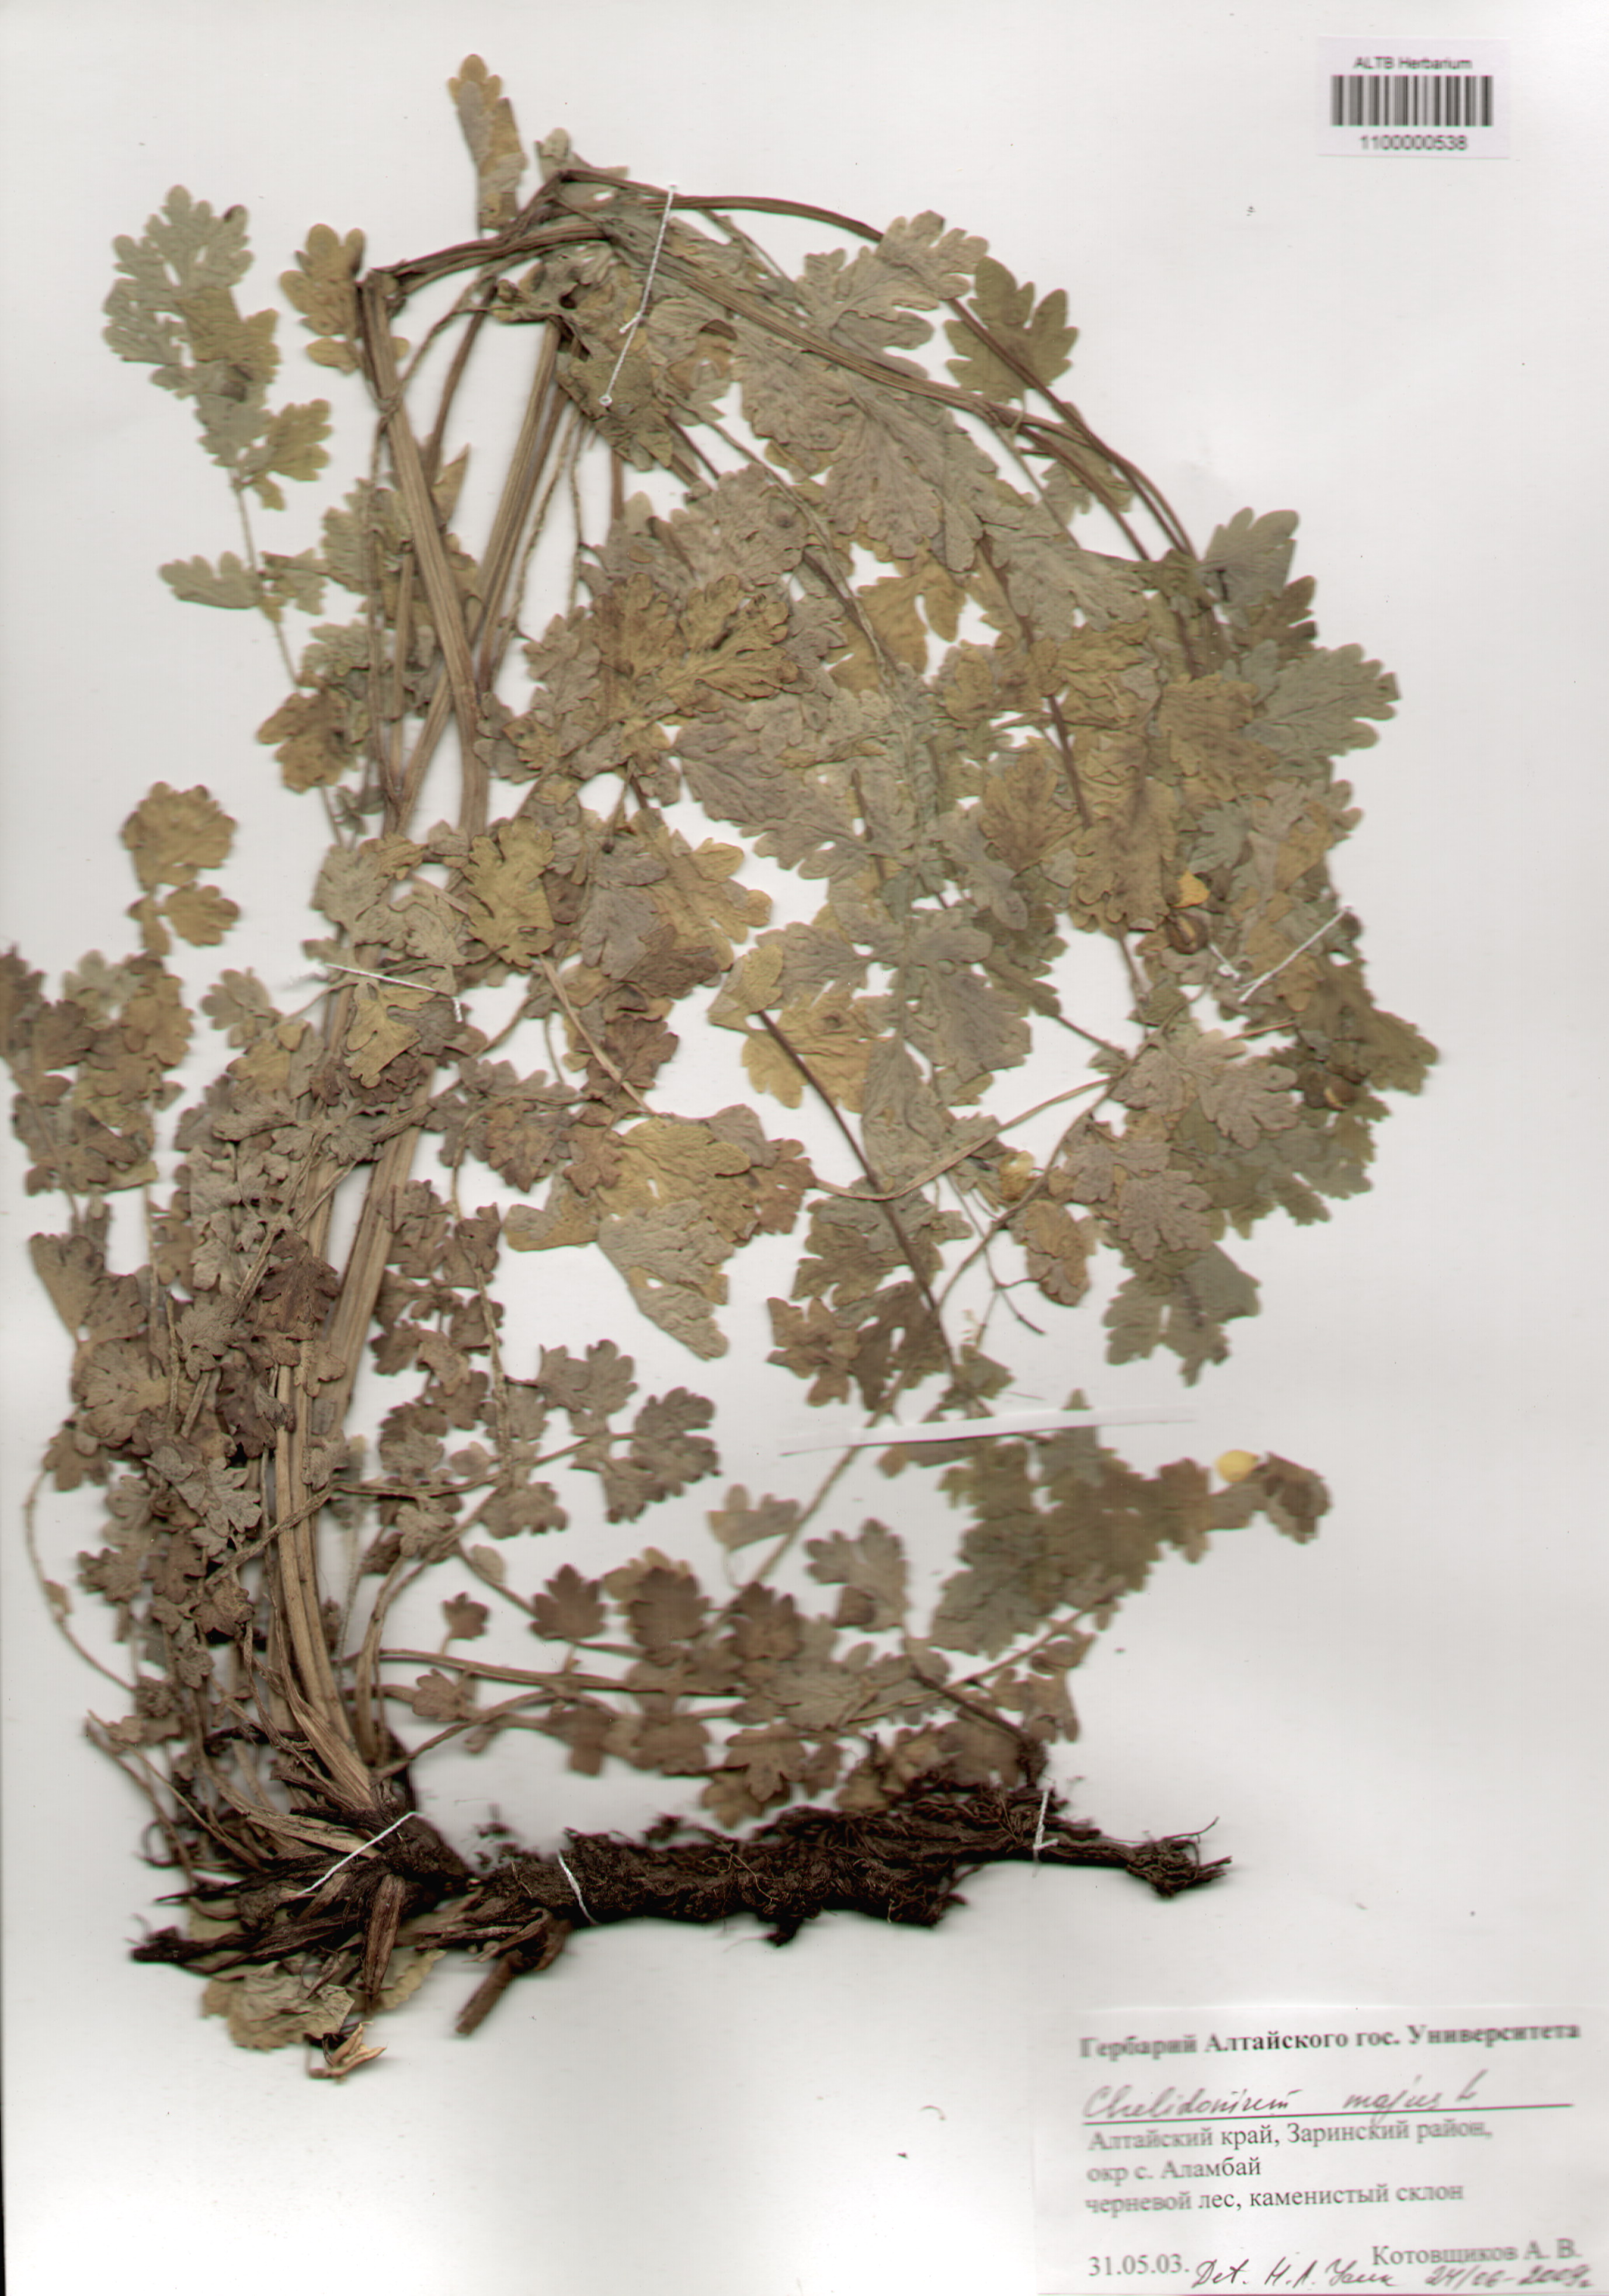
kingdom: Plantae
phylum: Tracheophyta
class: Magnoliopsida
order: Ranunculales
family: Papaveraceae
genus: Chelidonium
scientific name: Chelidonium majus
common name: Greater celandine
